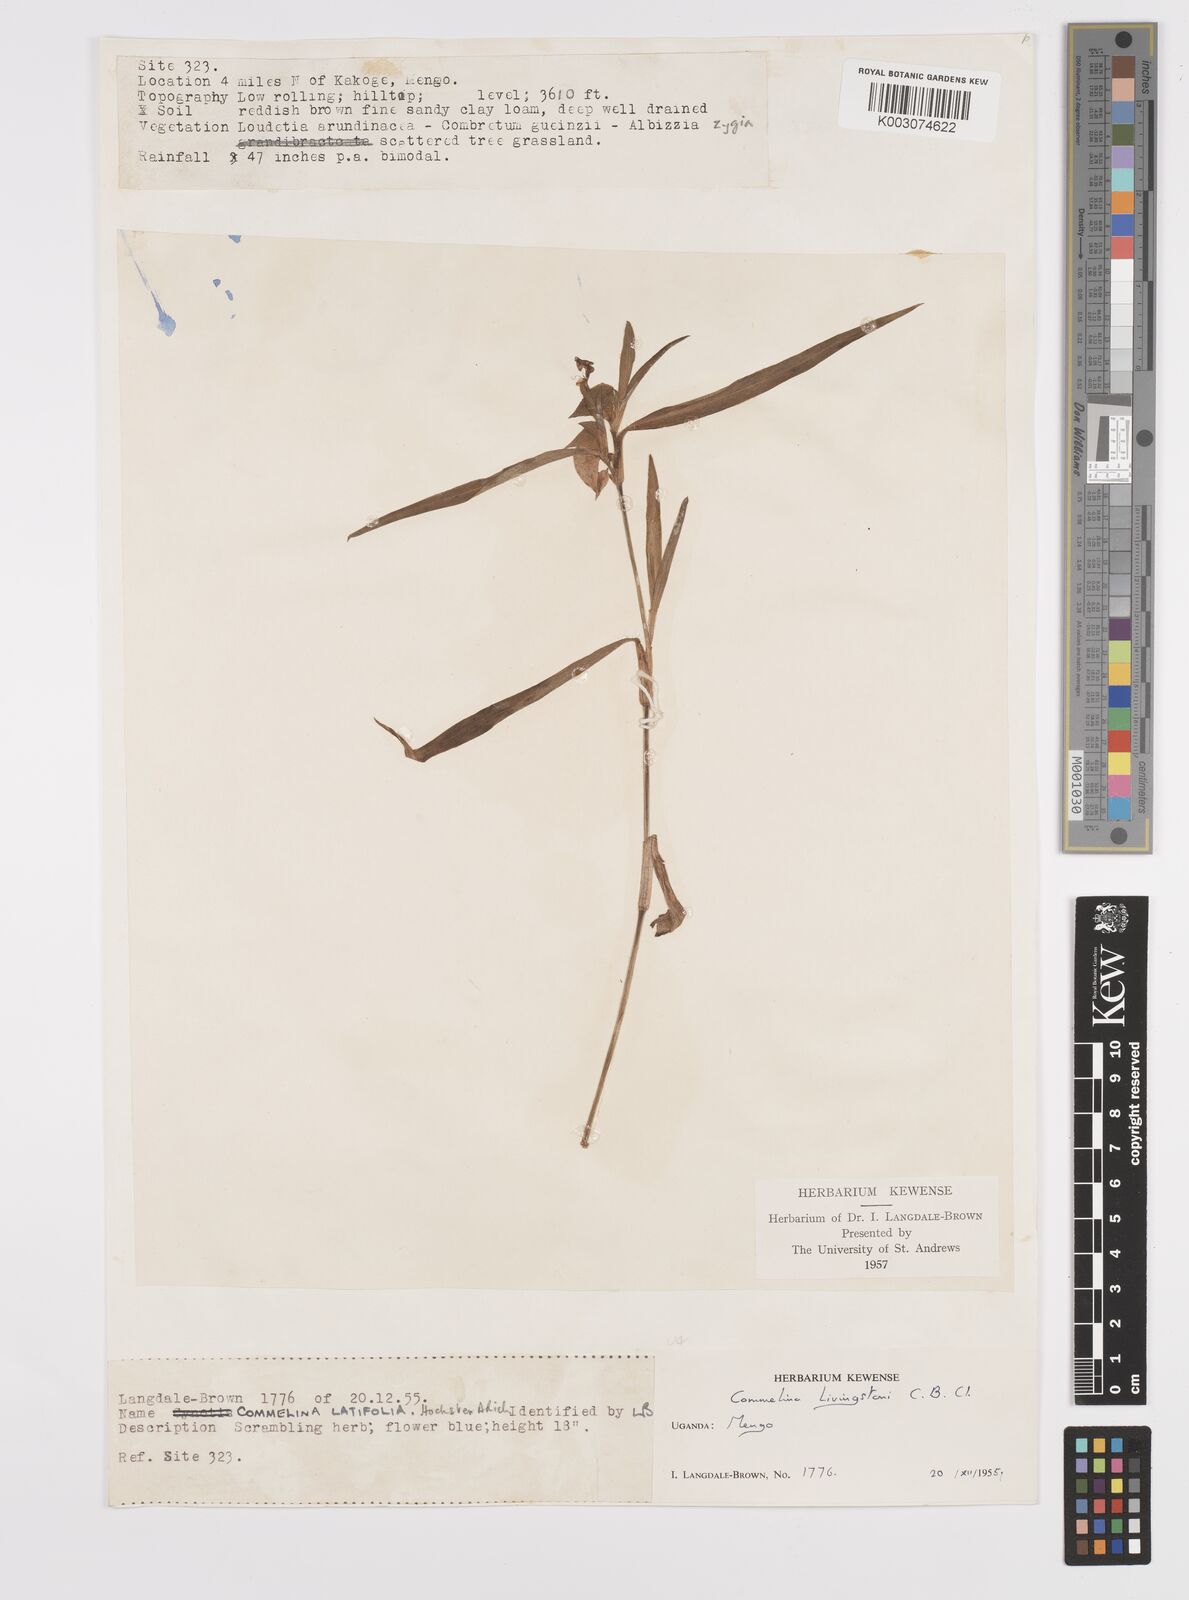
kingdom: Plantae
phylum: Tracheophyta
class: Liliopsida
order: Commelinales
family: Commelinaceae
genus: Commelina
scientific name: Commelina erecta
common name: Blousel blommetjie
